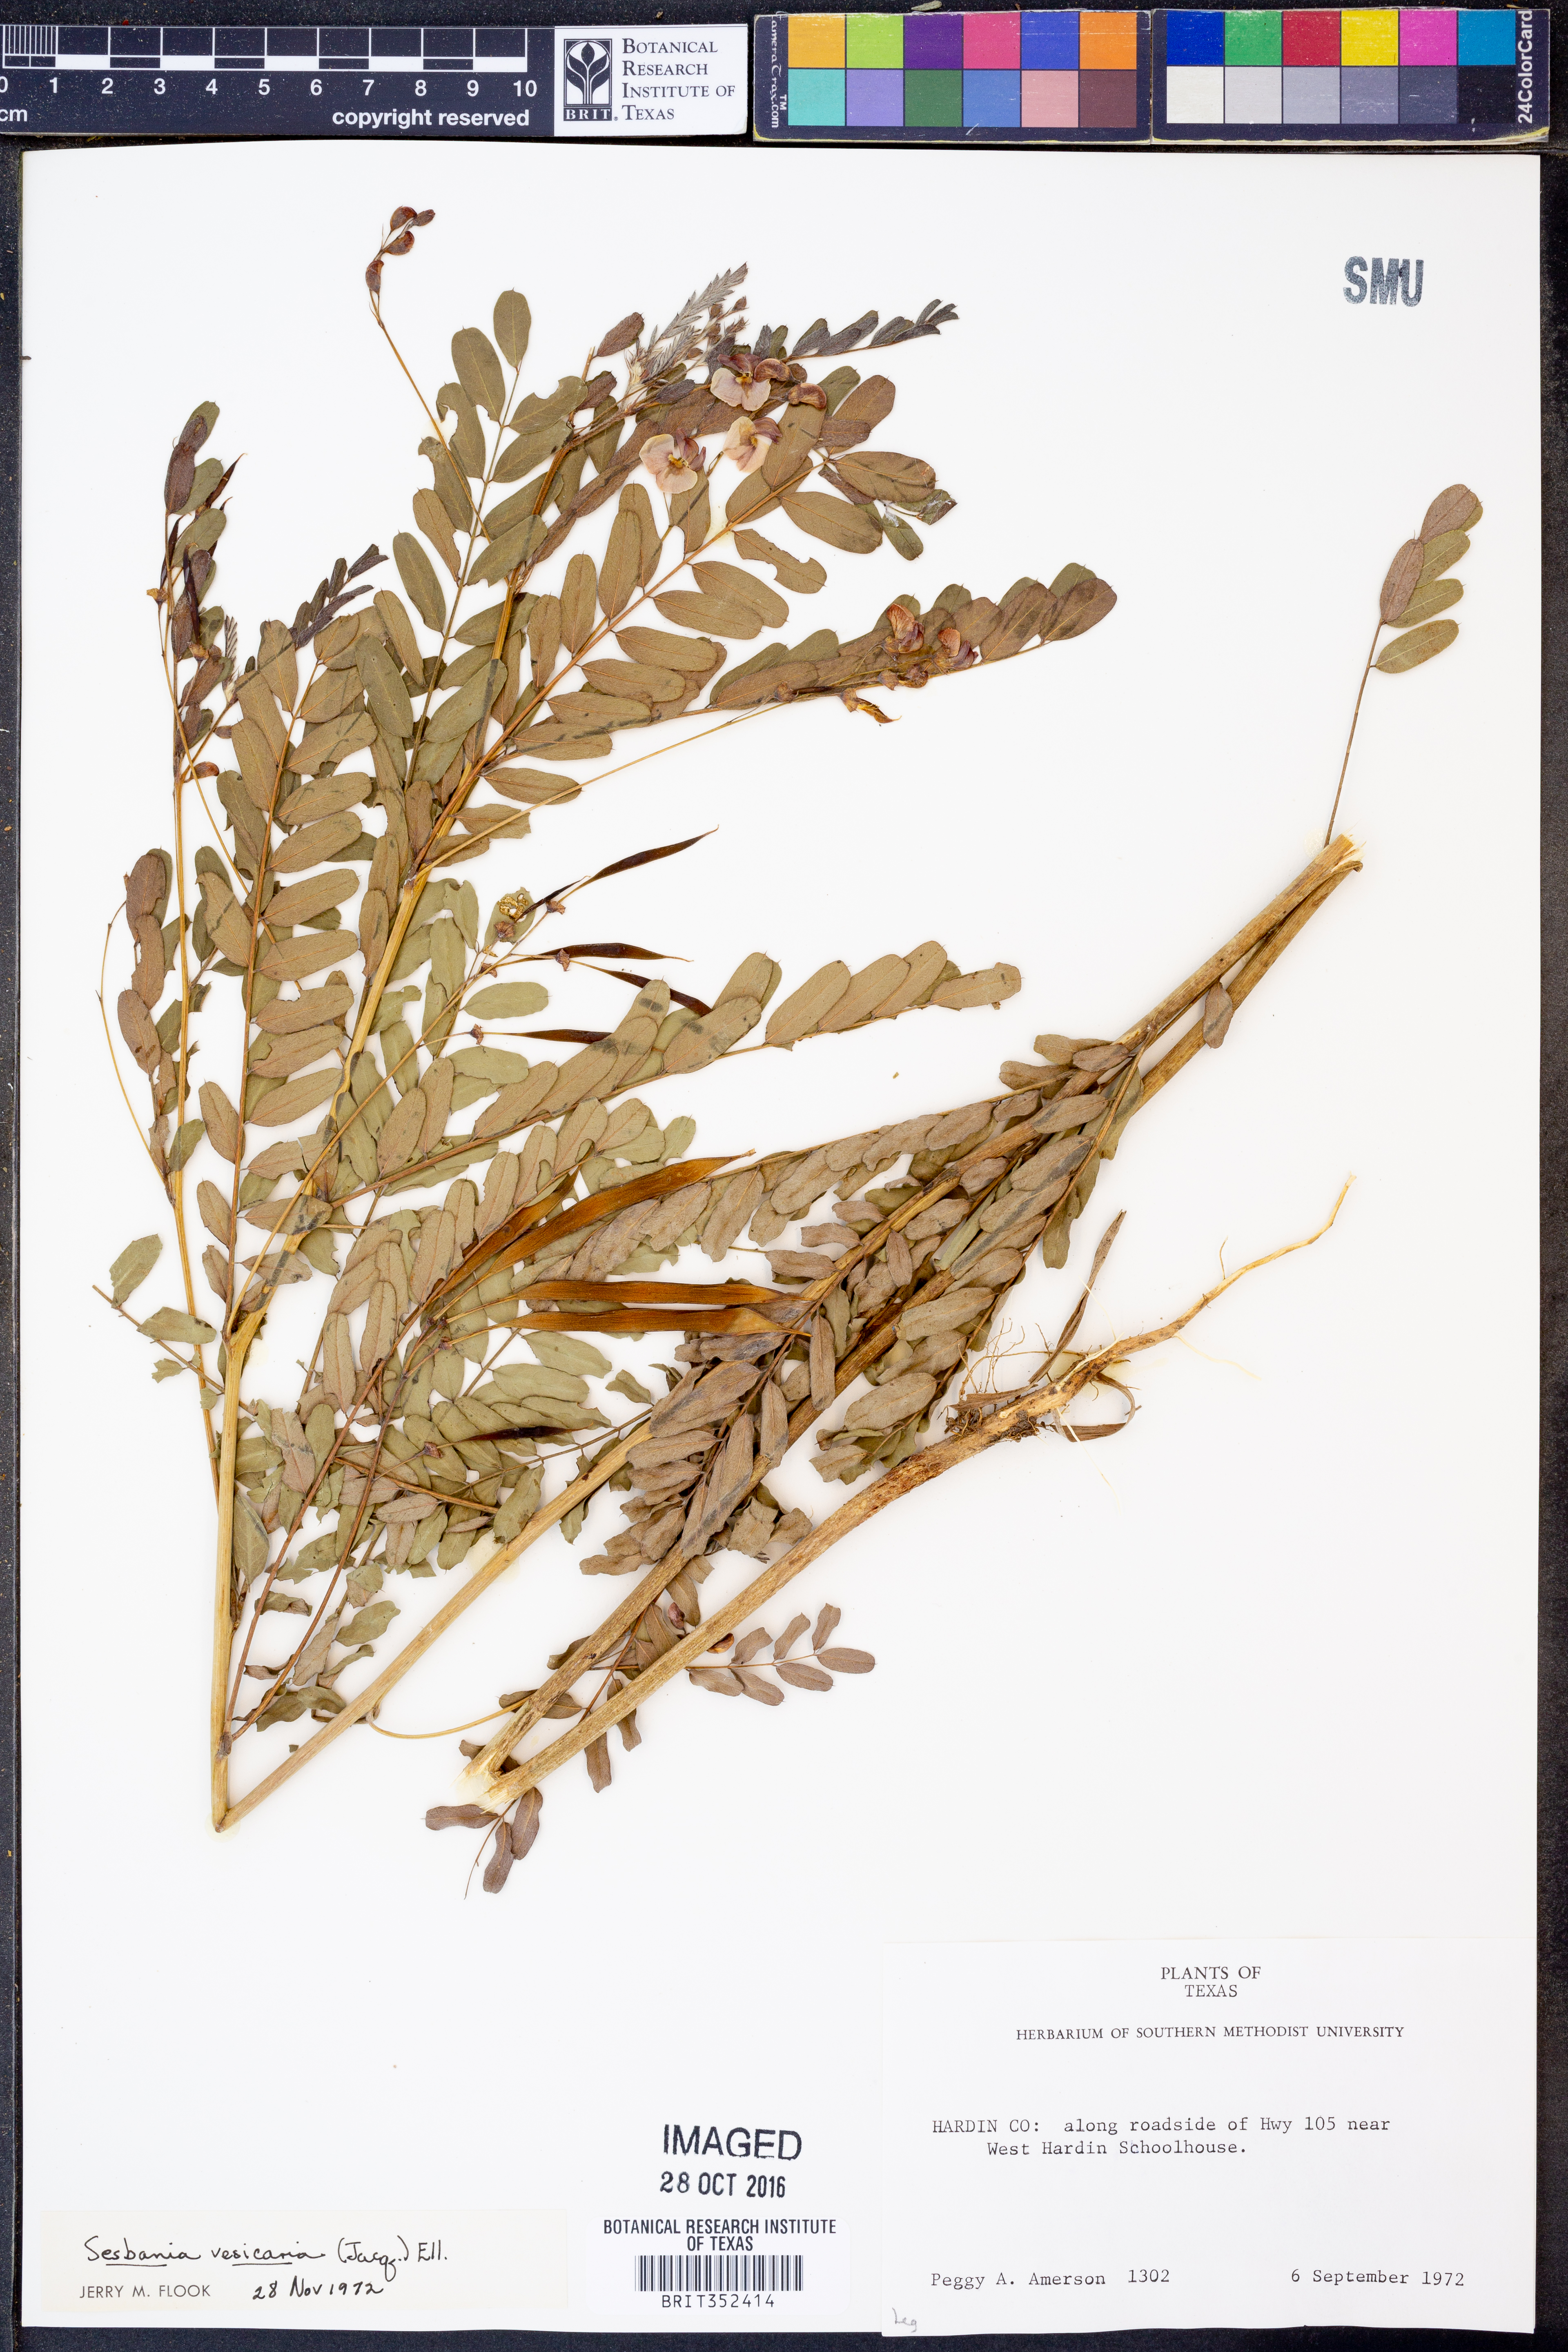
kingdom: Plantae
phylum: Tracheophyta
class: Magnoliopsida
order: Fabales
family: Fabaceae
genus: Sesbania
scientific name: Sesbania vesicaria
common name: Bagpod
